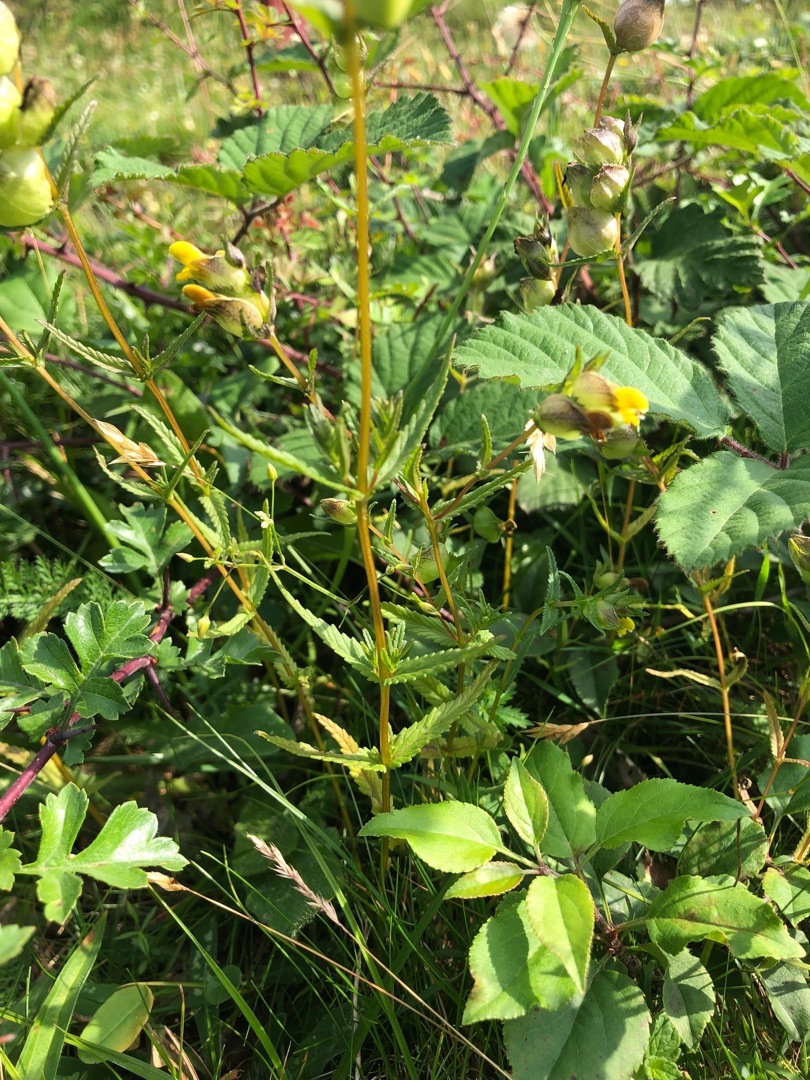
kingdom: Plantae
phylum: Tracheophyta
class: Magnoliopsida
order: Lamiales
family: Orobanchaceae
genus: Rhinanthus
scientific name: Rhinanthus minor
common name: Liden skjaller
